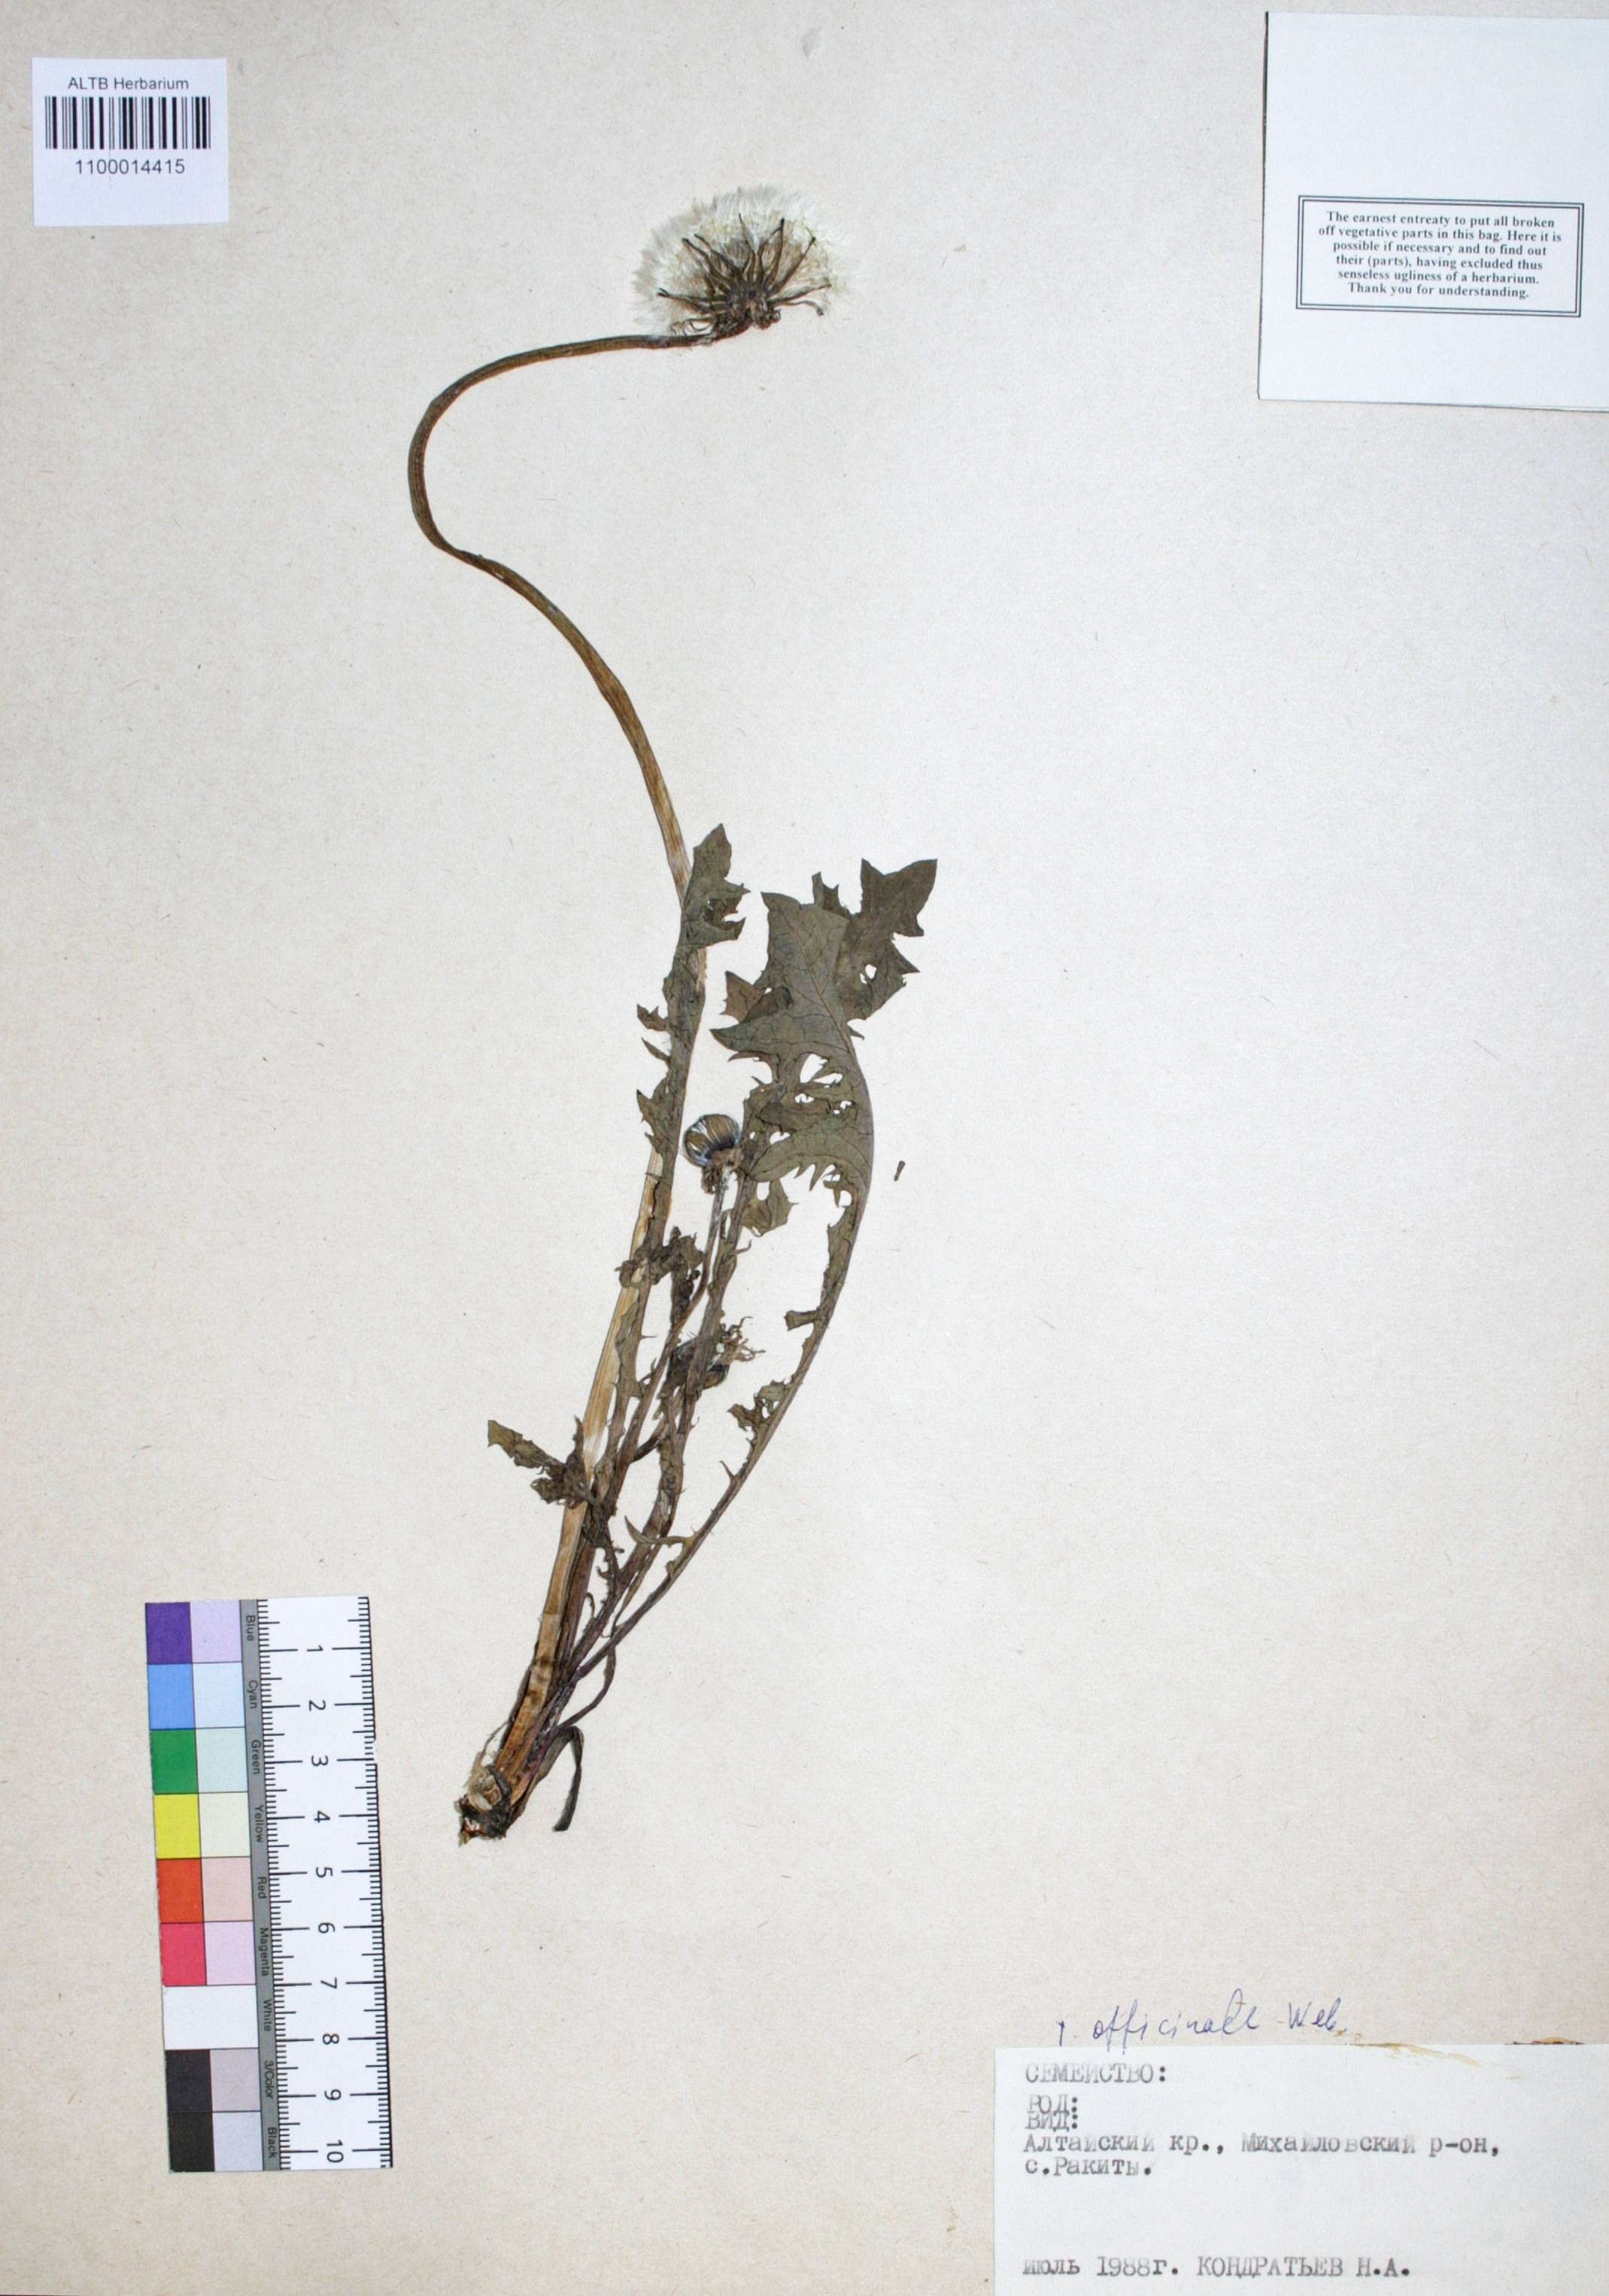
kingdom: Plantae
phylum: Tracheophyta
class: Magnoliopsida
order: Asterales
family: Asteraceae
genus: Taraxacum
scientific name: Taraxacum officinale
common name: Common dandelion
